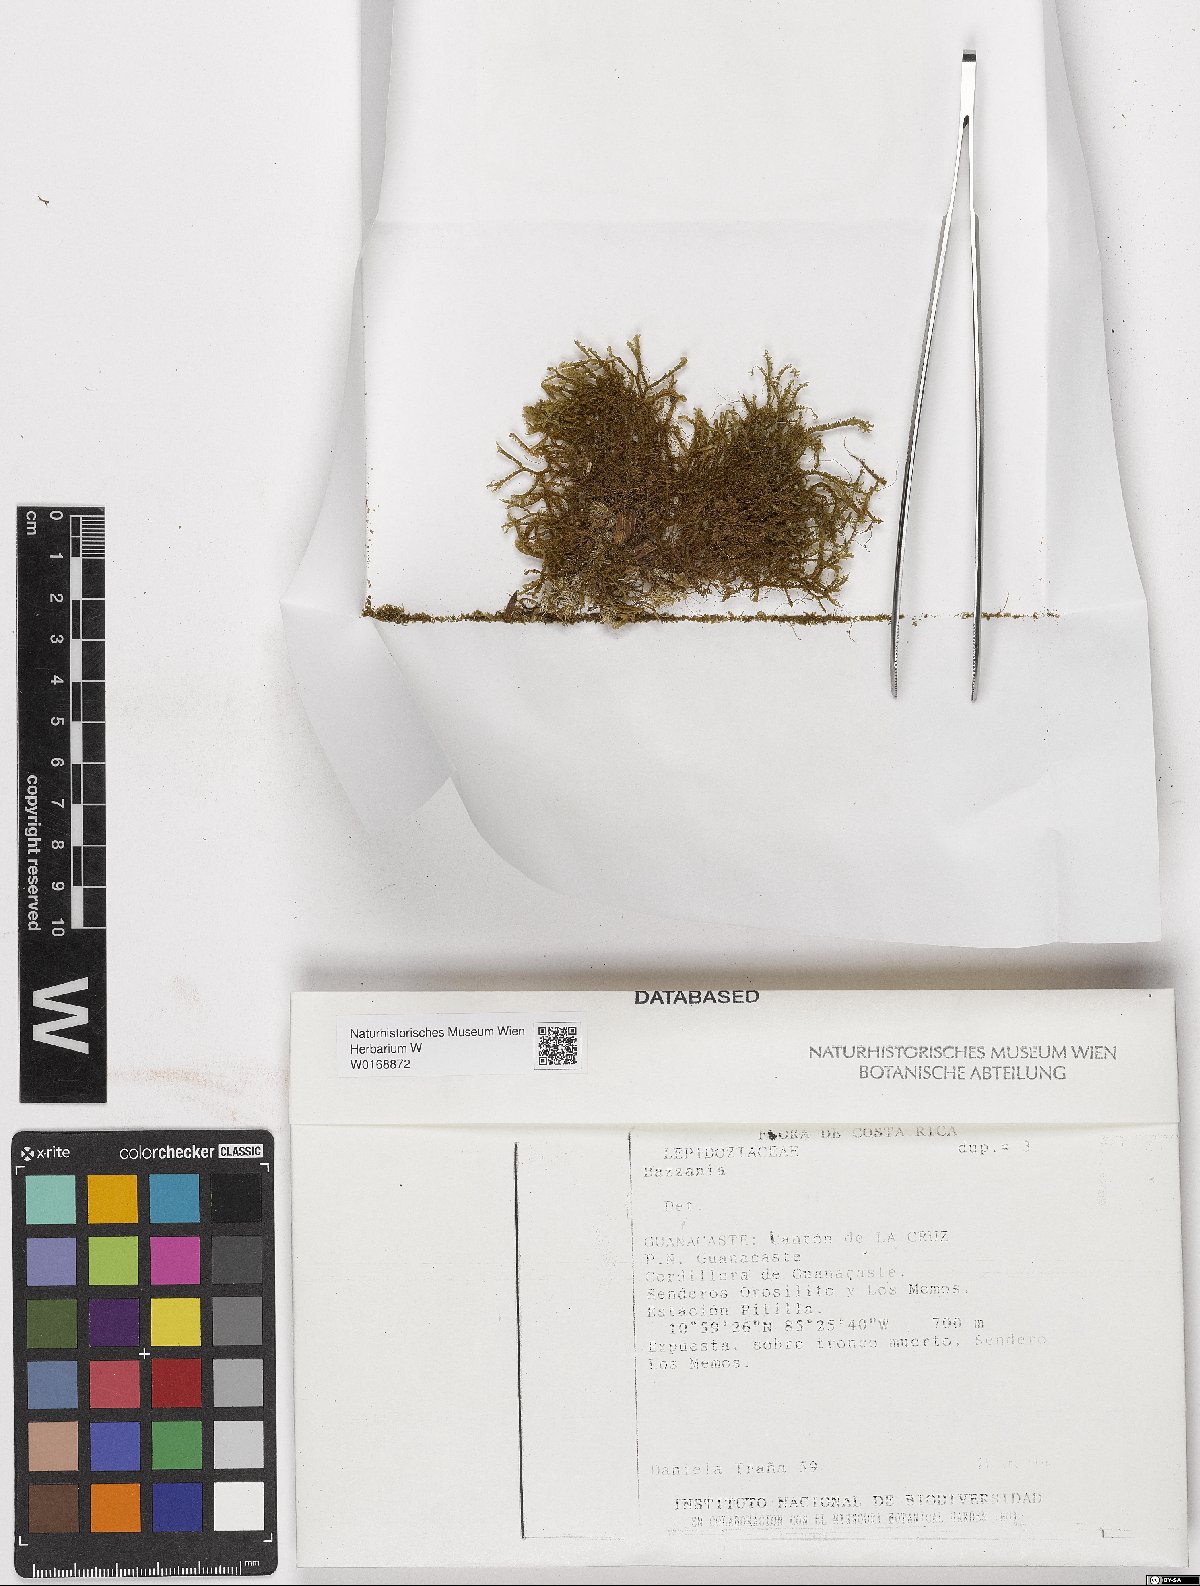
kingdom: Plantae
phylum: Marchantiophyta
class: Jungermanniopsida
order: Jungermanniales
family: Lepidoziaceae
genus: Bazzania
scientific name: Bazzania
